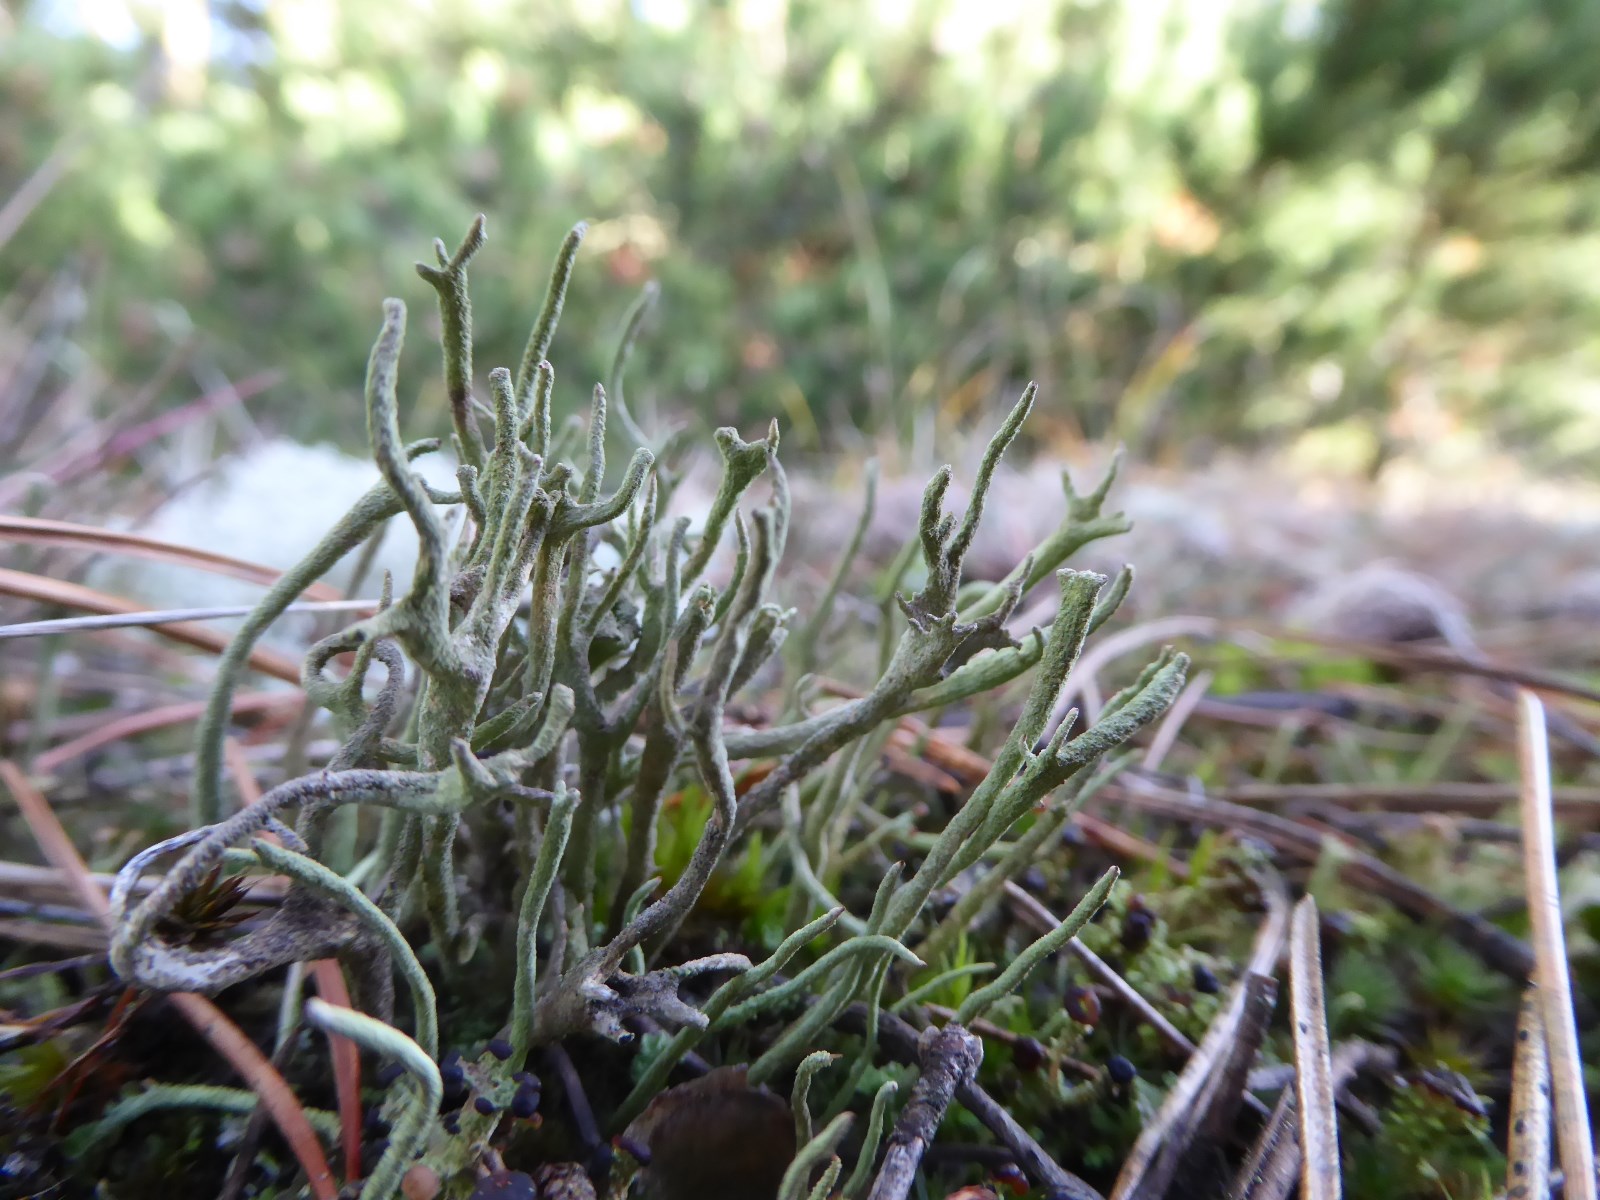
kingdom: Fungi
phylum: Ascomycota
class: Lecanoromycetes
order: Lecanorales
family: Cladoniaceae
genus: Cladonia
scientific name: Cladonia subulata
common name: spids bægerlav
